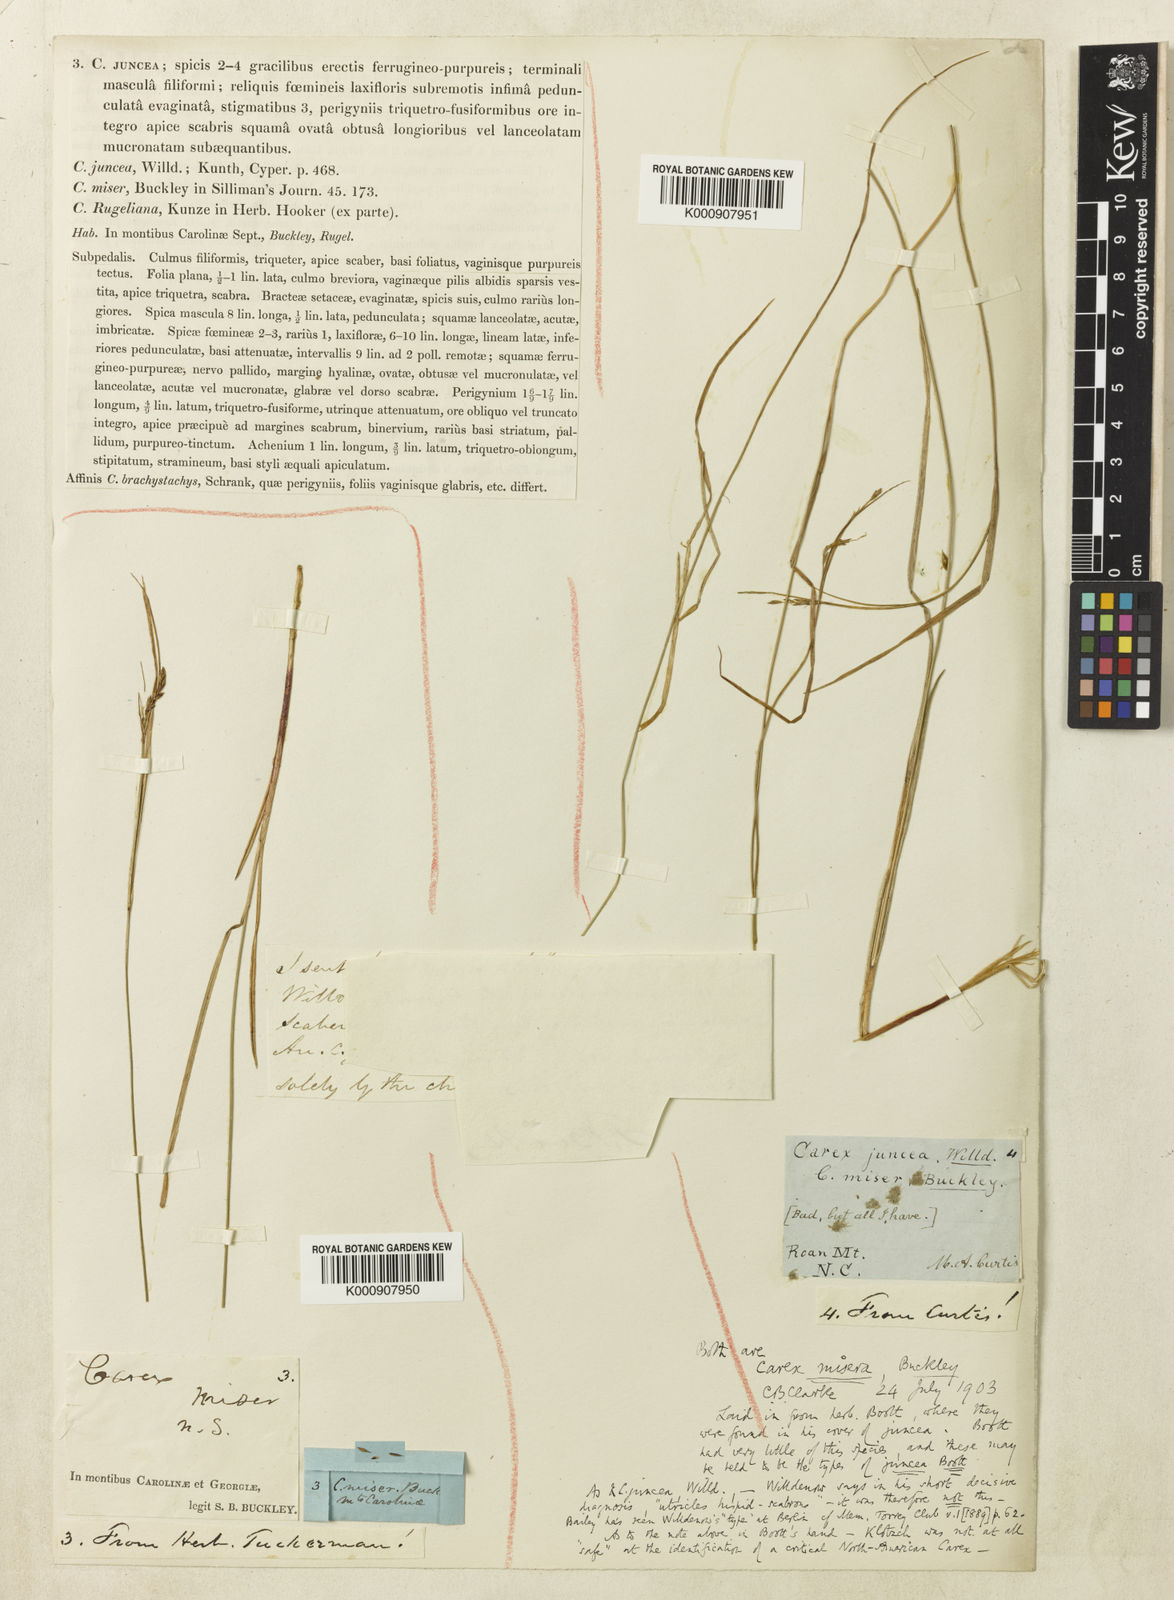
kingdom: Plantae
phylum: Tracheophyta
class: Liliopsida
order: Poales
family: Cyperaceae
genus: Carex
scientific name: Carex misera
